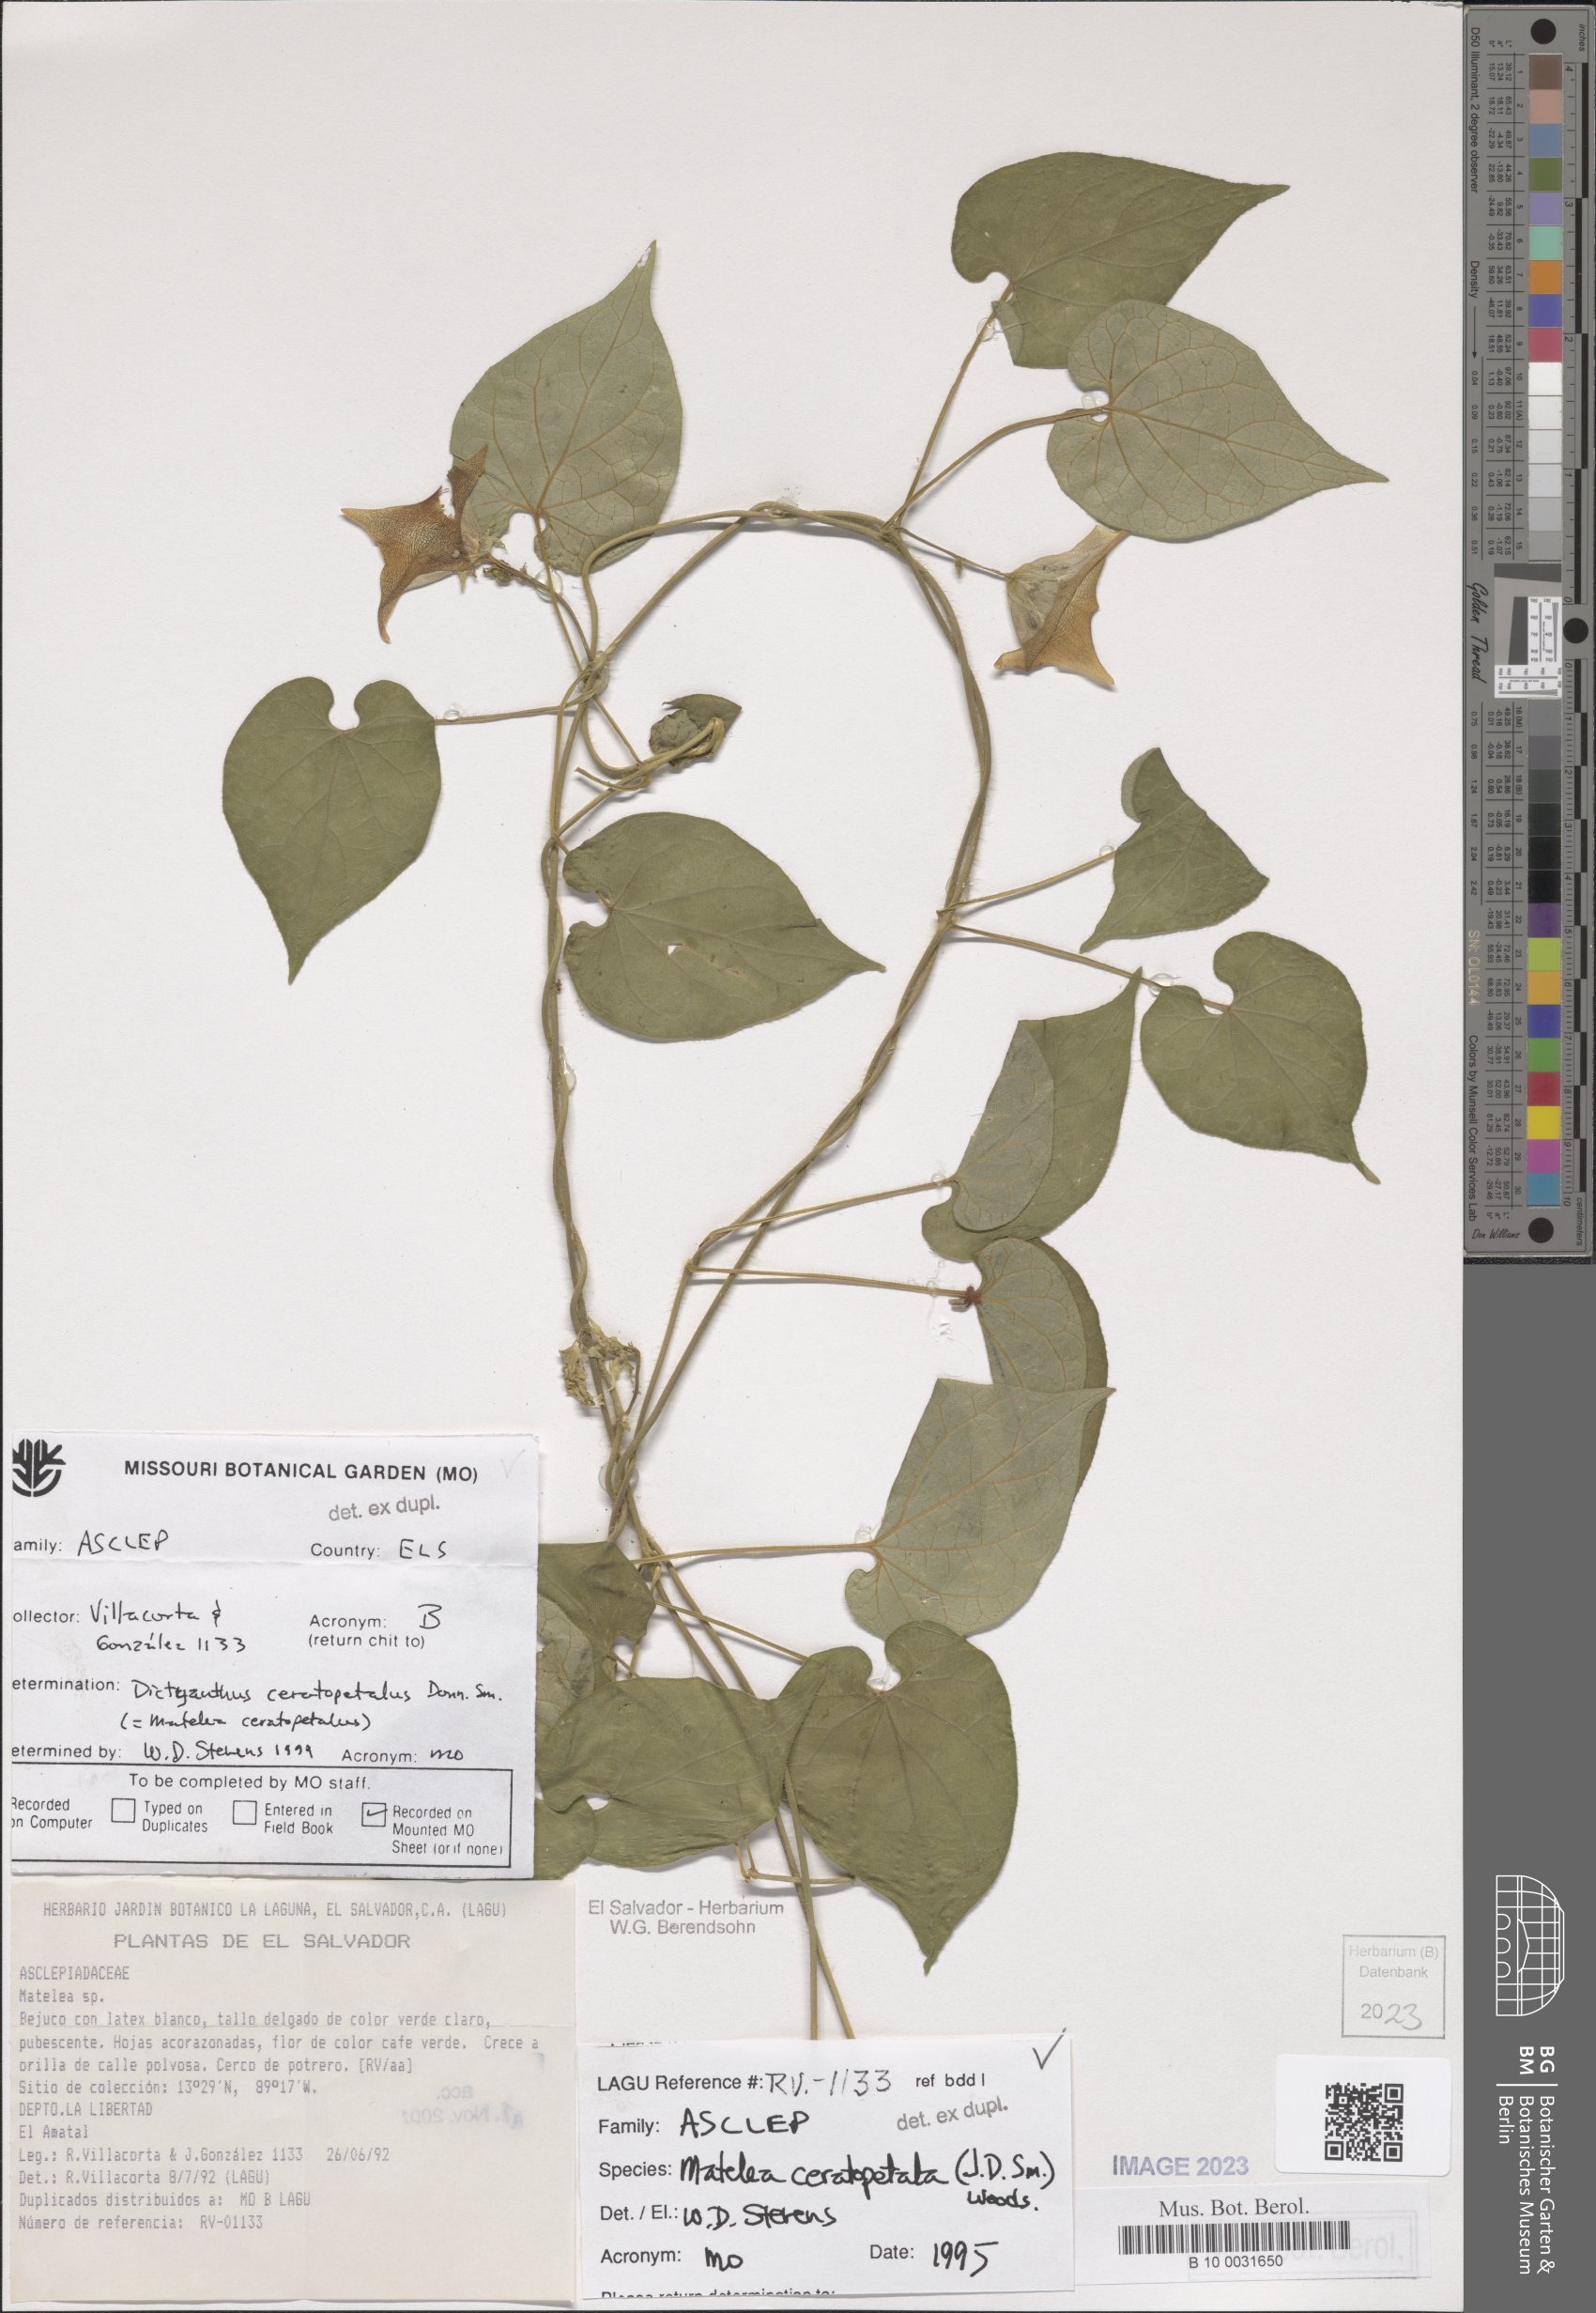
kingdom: Plantae
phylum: Tracheophyta
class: Magnoliopsida
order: Gentianales
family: Apocynaceae
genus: Dictyanthus
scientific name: Dictyanthus ceratopetalus
